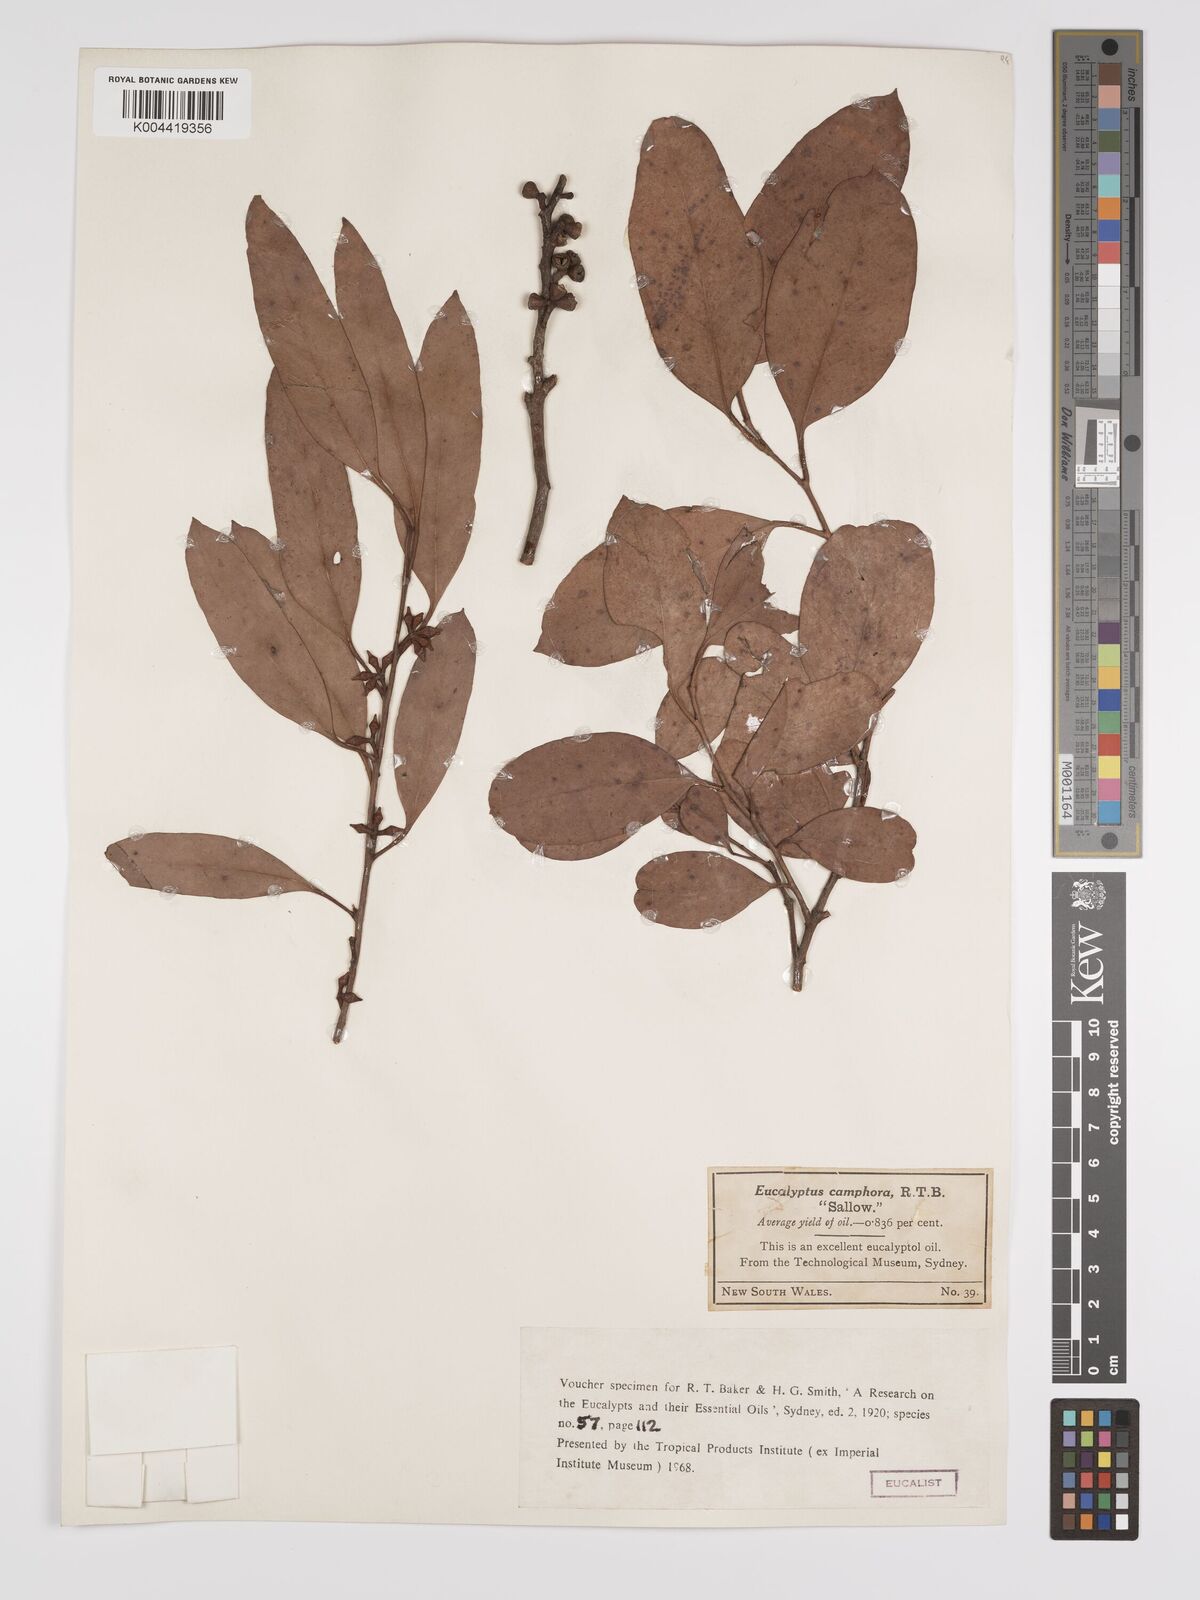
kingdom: Plantae
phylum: Tracheophyta
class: Magnoliopsida
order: Myrtales
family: Myrtaceae
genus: Eucalyptus
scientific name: Eucalyptus camphora
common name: Mountain swamp gum
